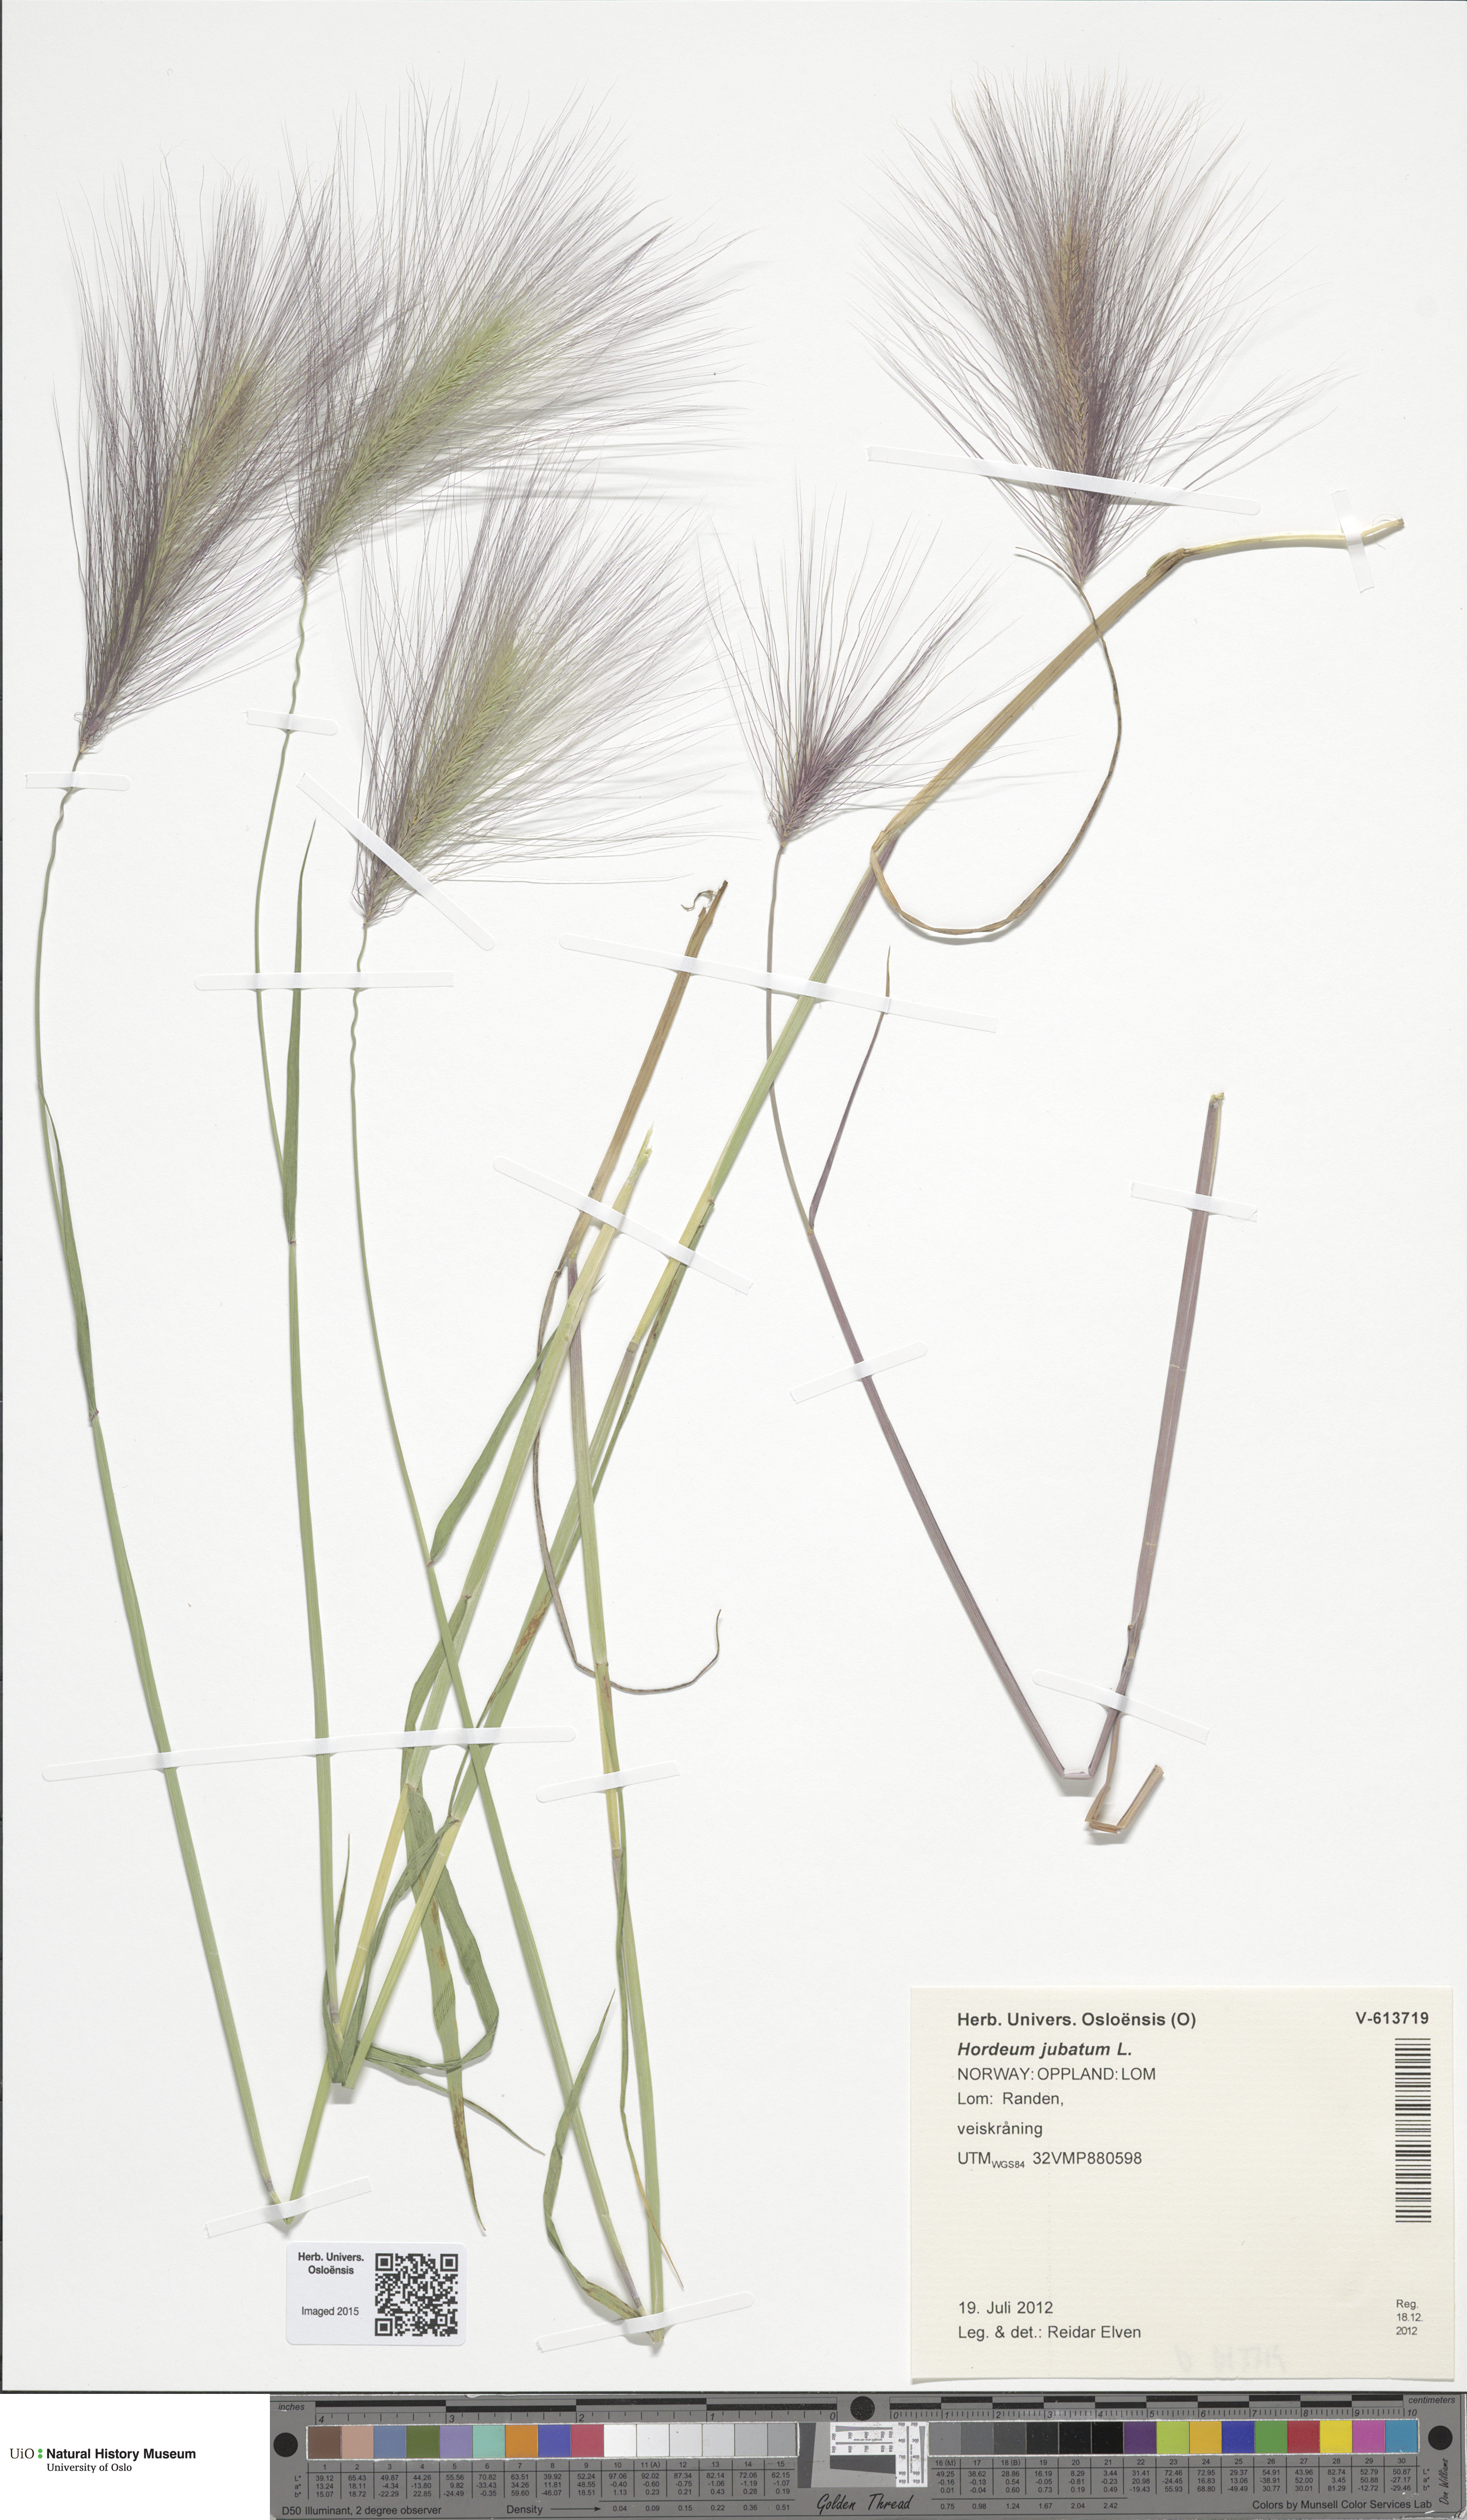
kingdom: Plantae
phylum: Tracheophyta
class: Liliopsida
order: Poales
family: Poaceae
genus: Hordeum
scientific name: Hordeum jubatum
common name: Foxtail barley
